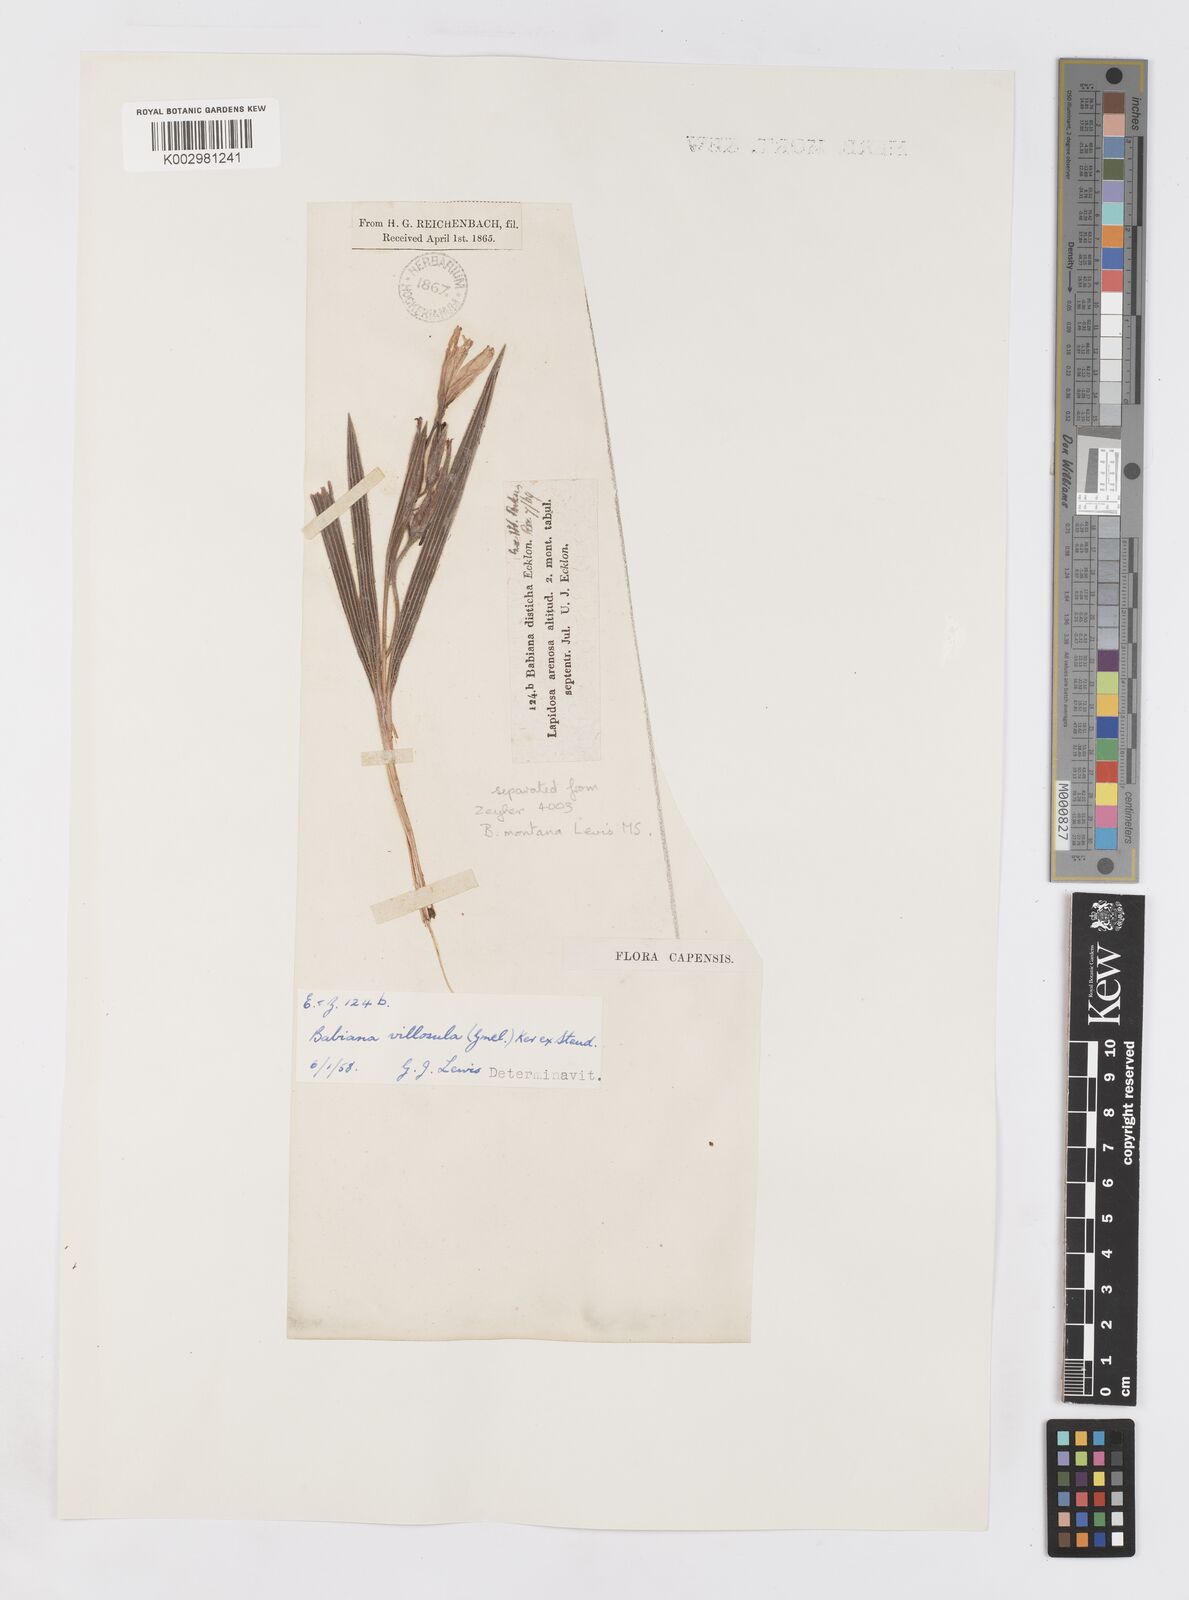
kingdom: Plantae
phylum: Tracheophyta
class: Liliopsida
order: Asparagales
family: Iridaceae
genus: Babiana
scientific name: Babiana villosula
